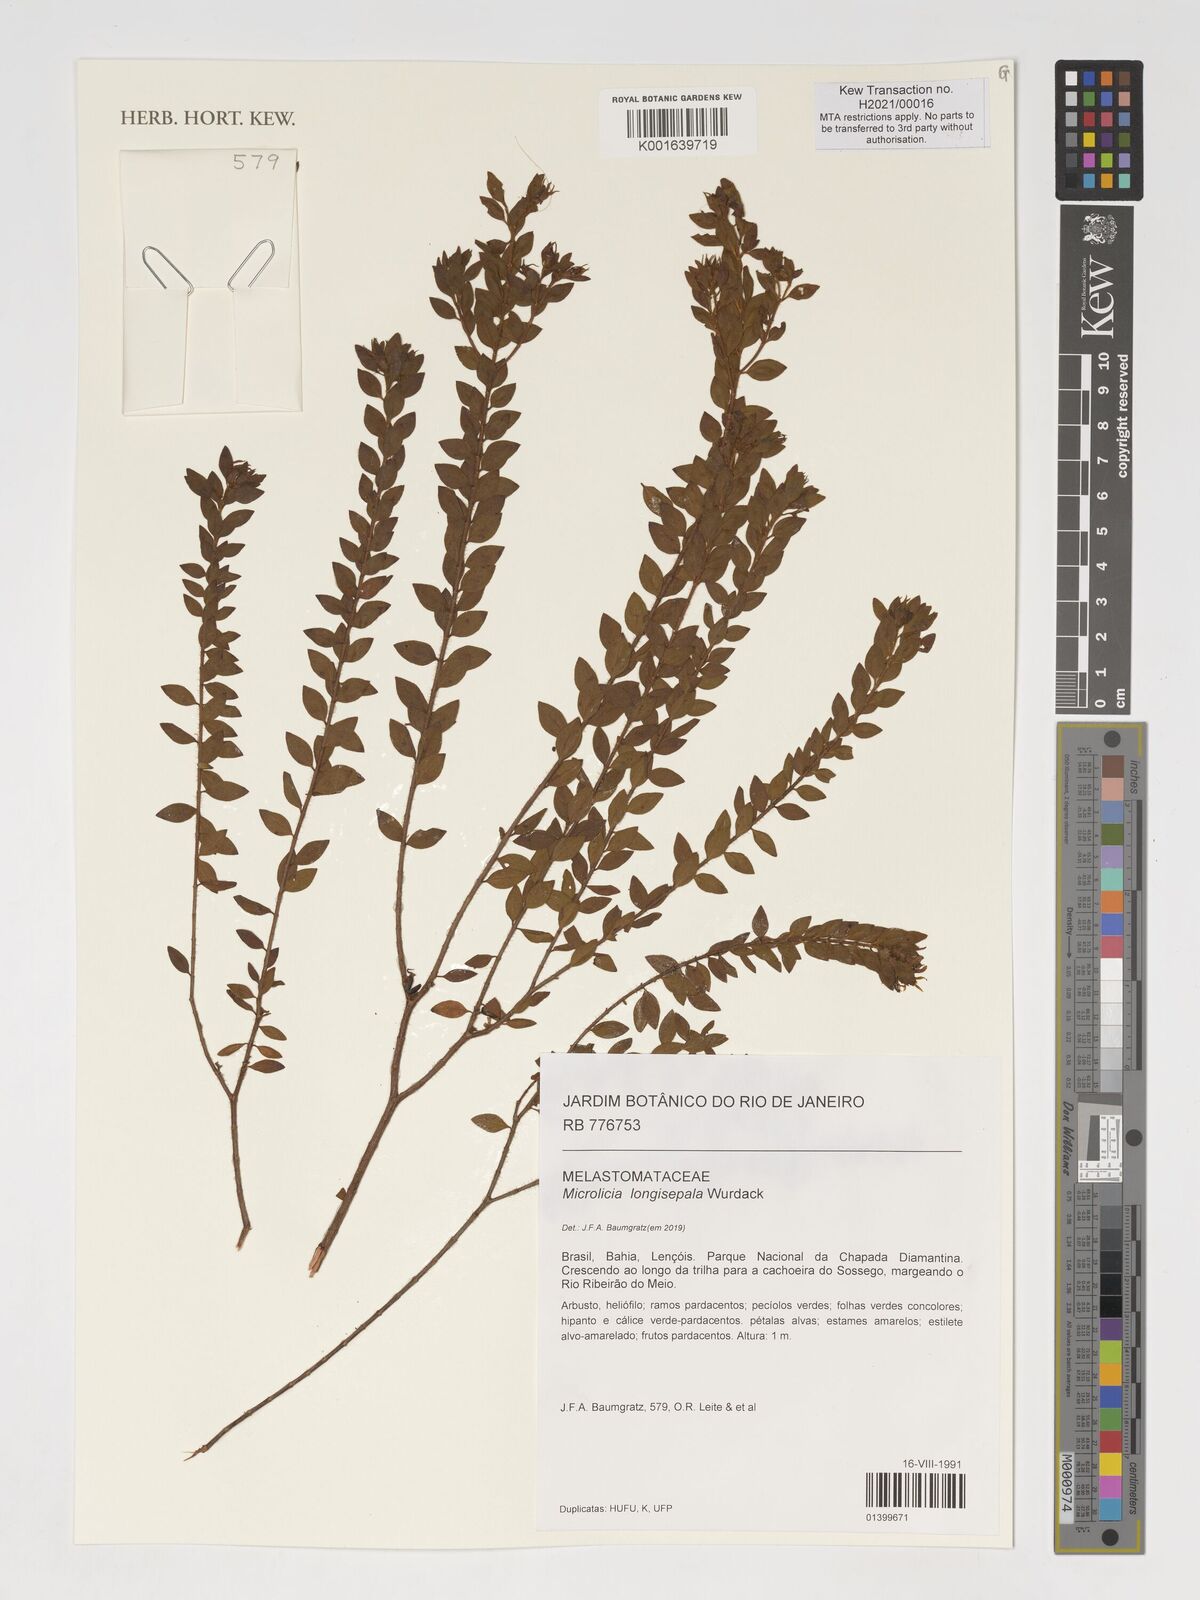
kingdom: Plantae
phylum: Tracheophyta
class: Magnoliopsida
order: Myrtales
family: Melastomataceae
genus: Microlicia
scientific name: Microlicia longisepala
